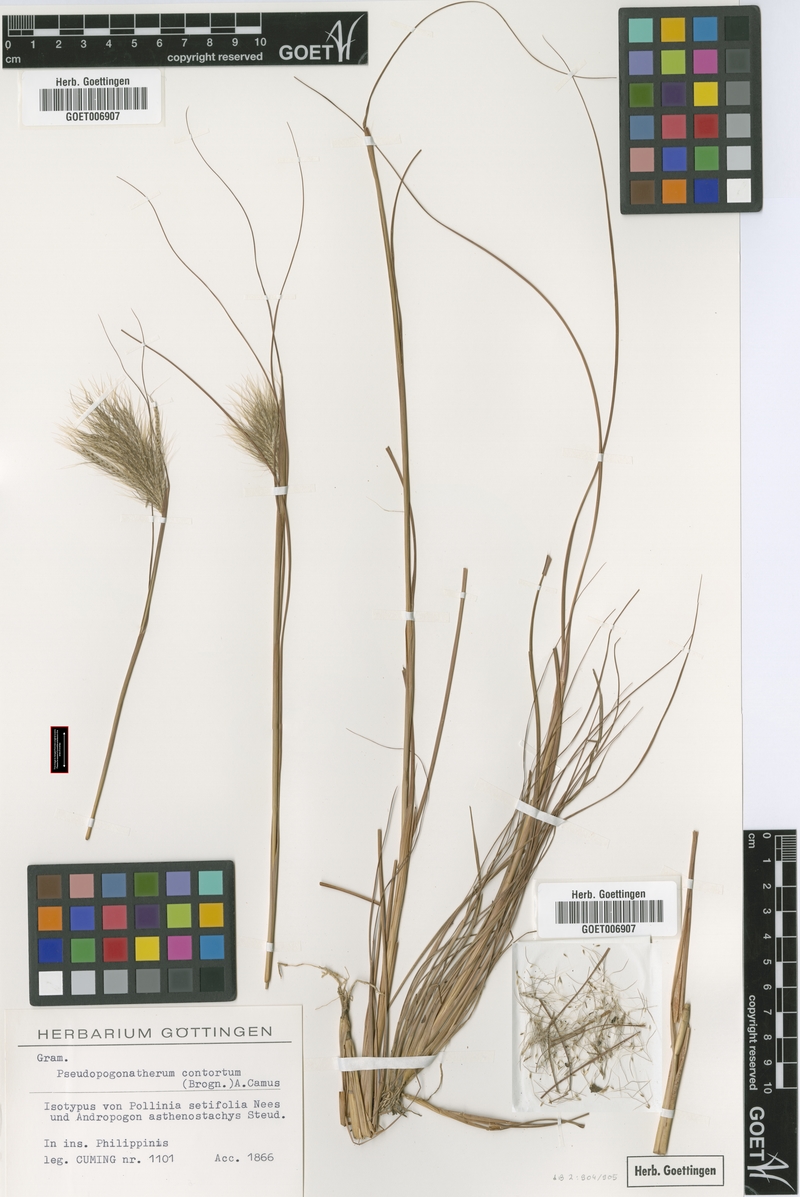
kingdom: Plantae
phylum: Tracheophyta
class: Liliopsida
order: Poales
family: Poaceae
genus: Pseudopogonatherum
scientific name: Pseudopogonatherum contortum
